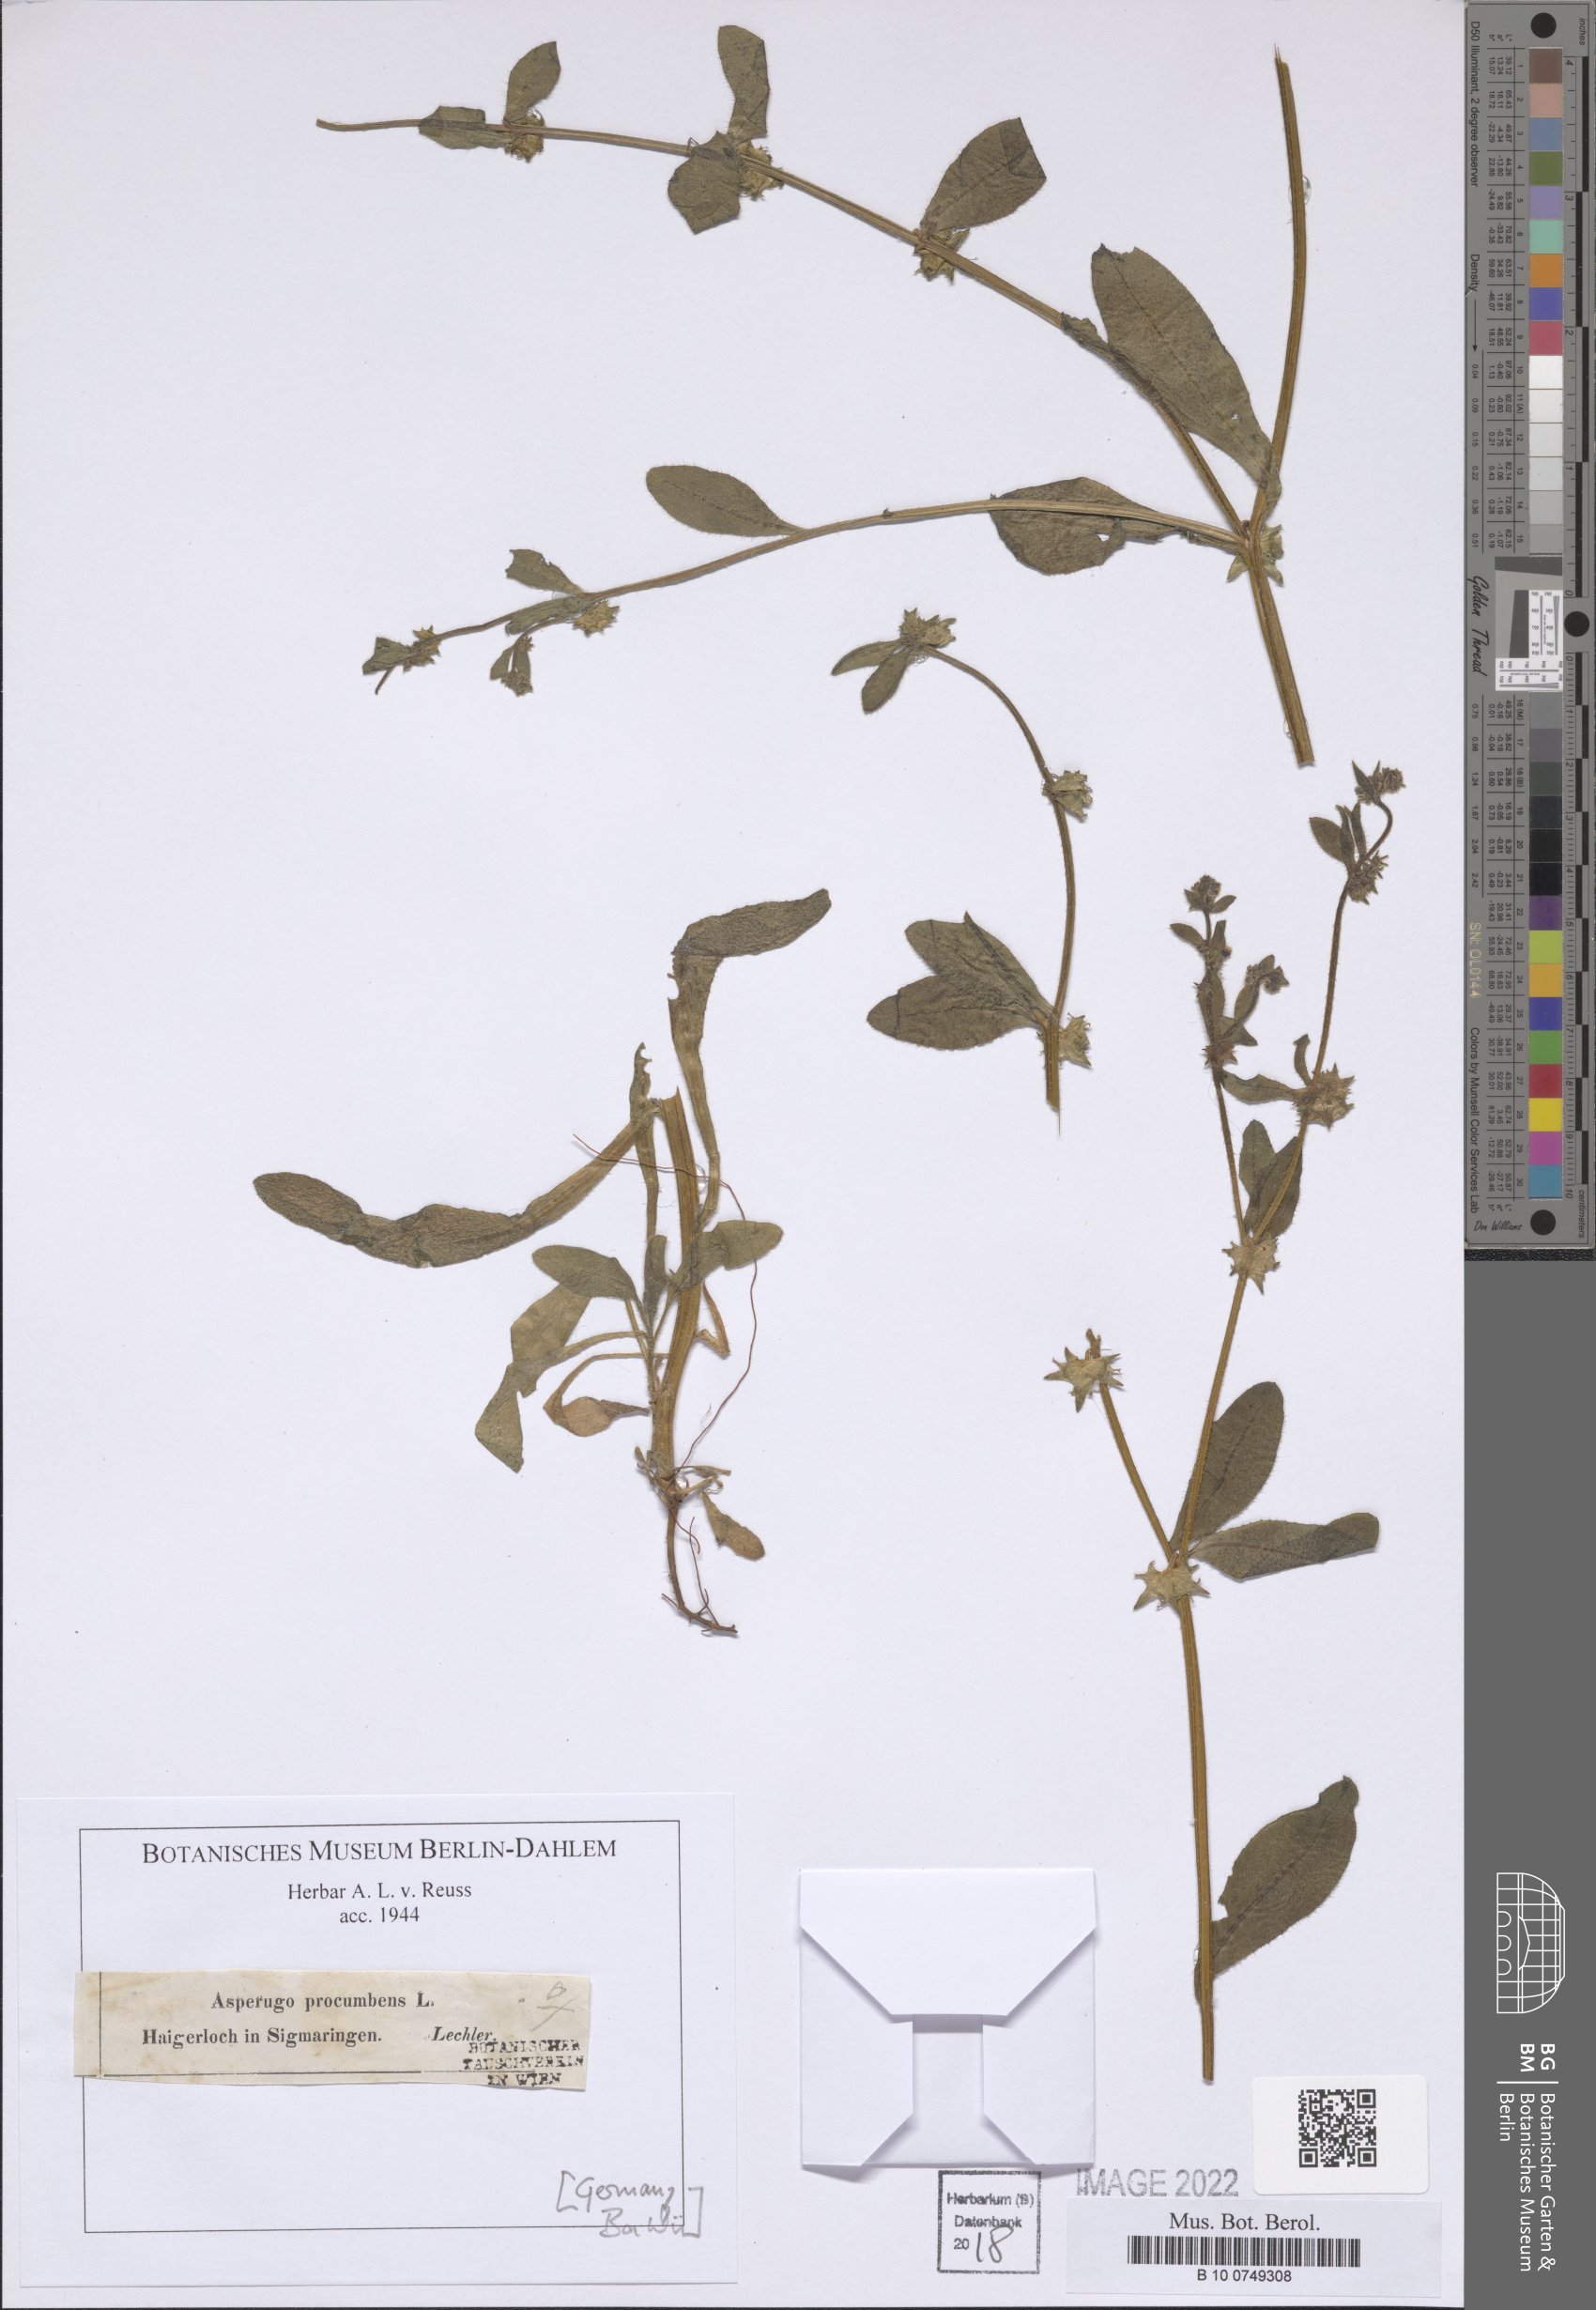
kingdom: Plantae
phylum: Tracheophyta
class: Magnoliopsida
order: Boraginales
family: Boraginaceae
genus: Asperugo
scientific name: Asperugo procumbens
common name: Madwort
